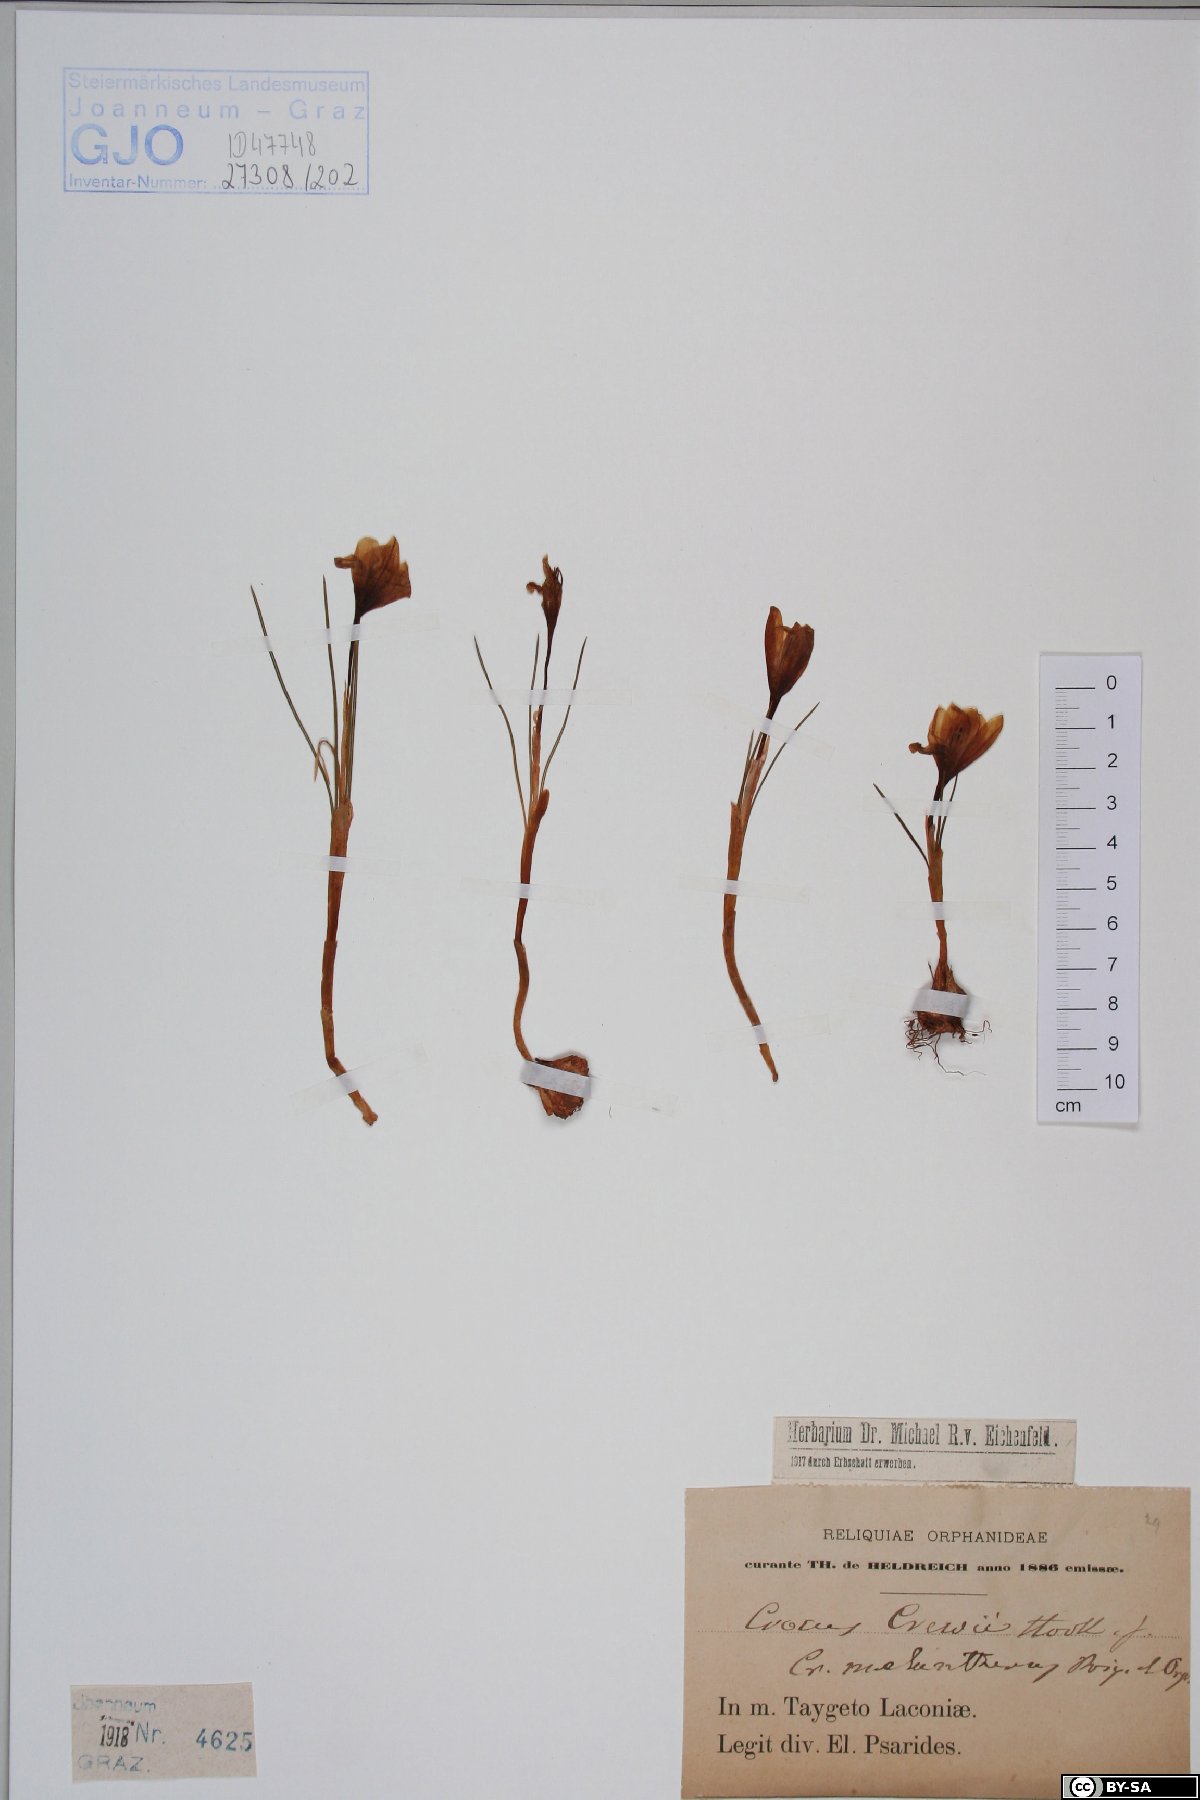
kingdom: Plantae
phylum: Tracheophyta
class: Liliopsida
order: Asparagales
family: Iridaceae
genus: Crocus
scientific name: Crocus crewei
